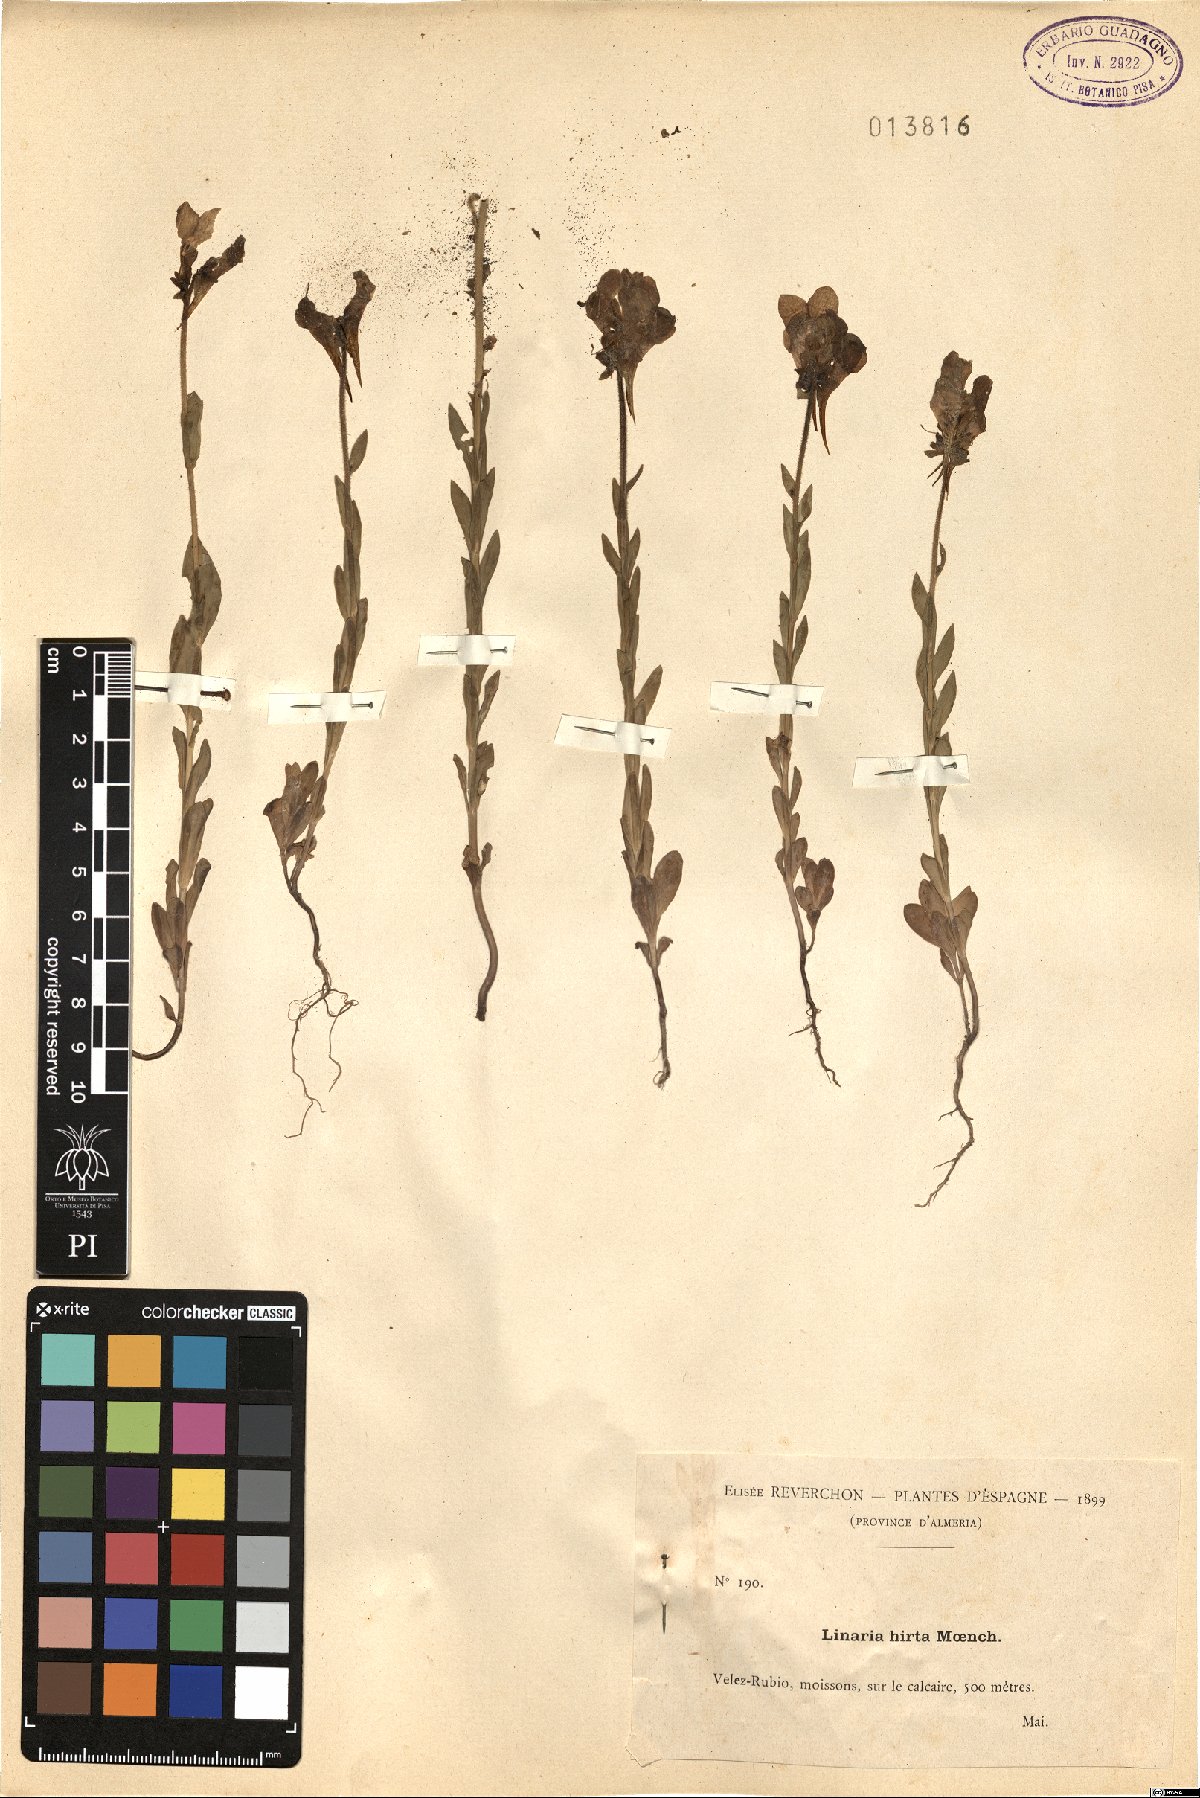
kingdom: Plantae
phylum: Tracheophyta
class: Magnoliopsida
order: Lamiales
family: Plantaginaceae
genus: Linaria
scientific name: Linaria hirta
